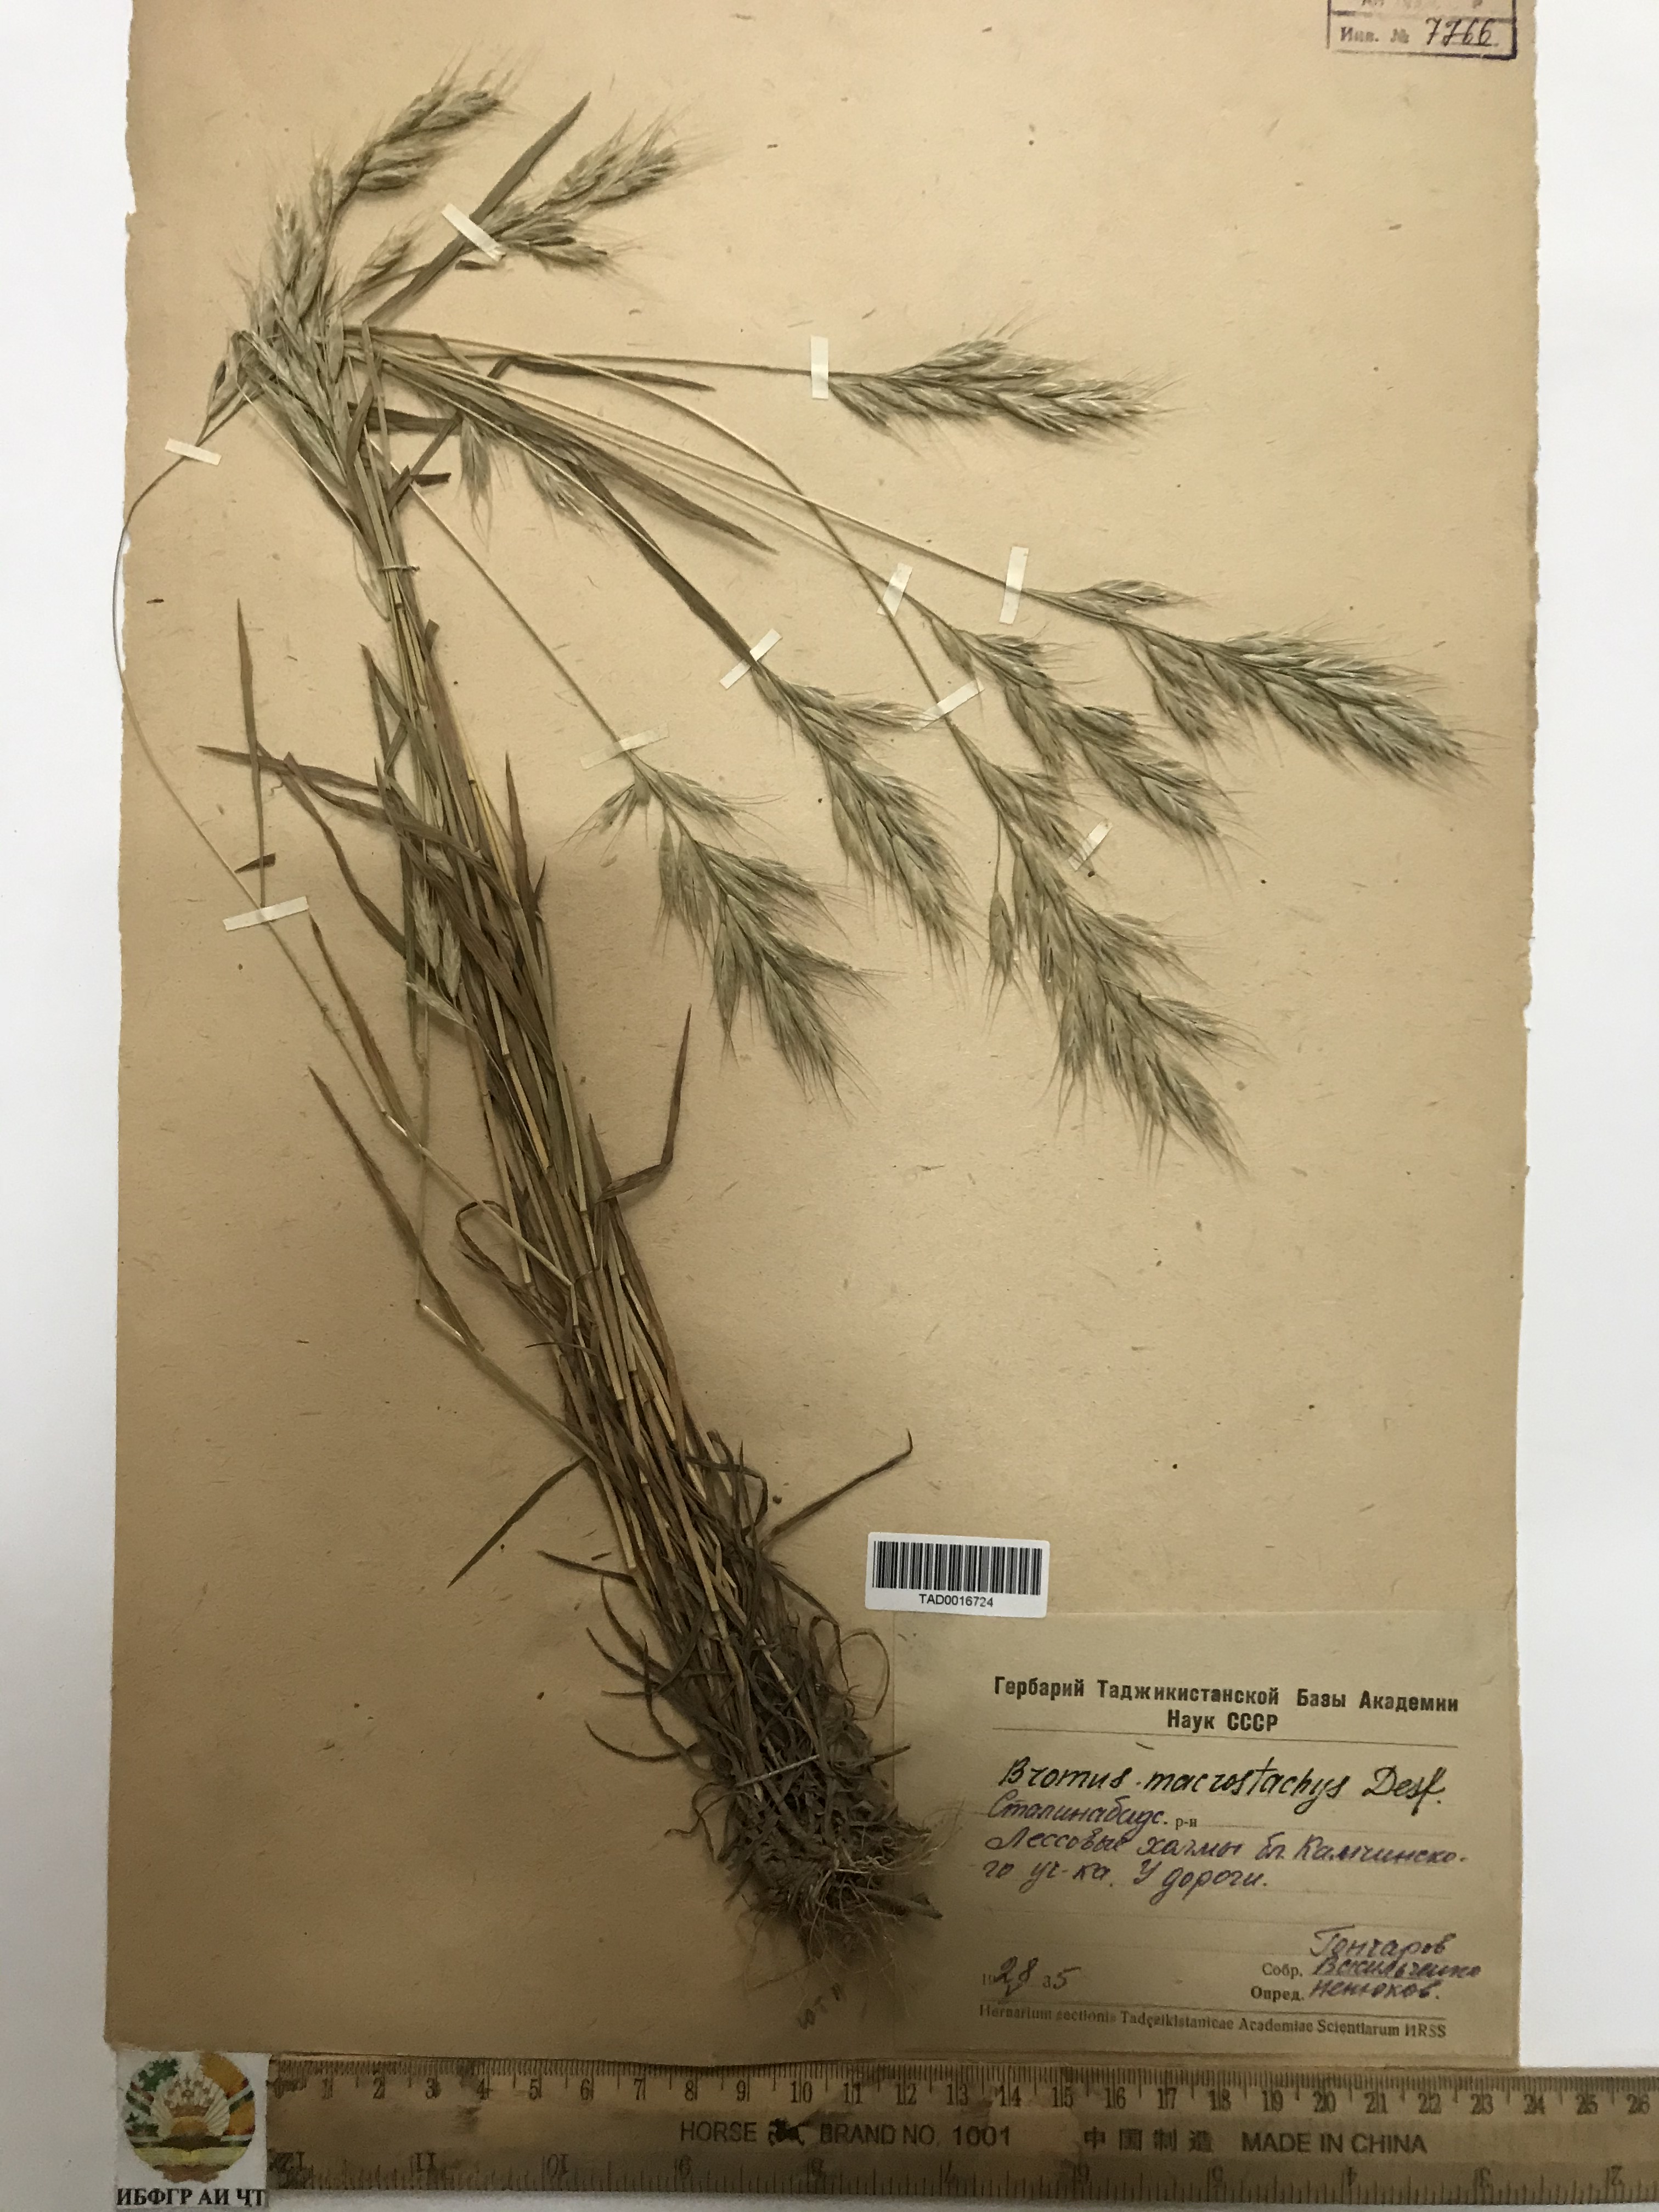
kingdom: Plantae
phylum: Tracheophyta
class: Liliopsida
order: Poales
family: Poaceae
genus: Bromus
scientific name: Bromus lanceolatus
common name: Mediterranean brome
